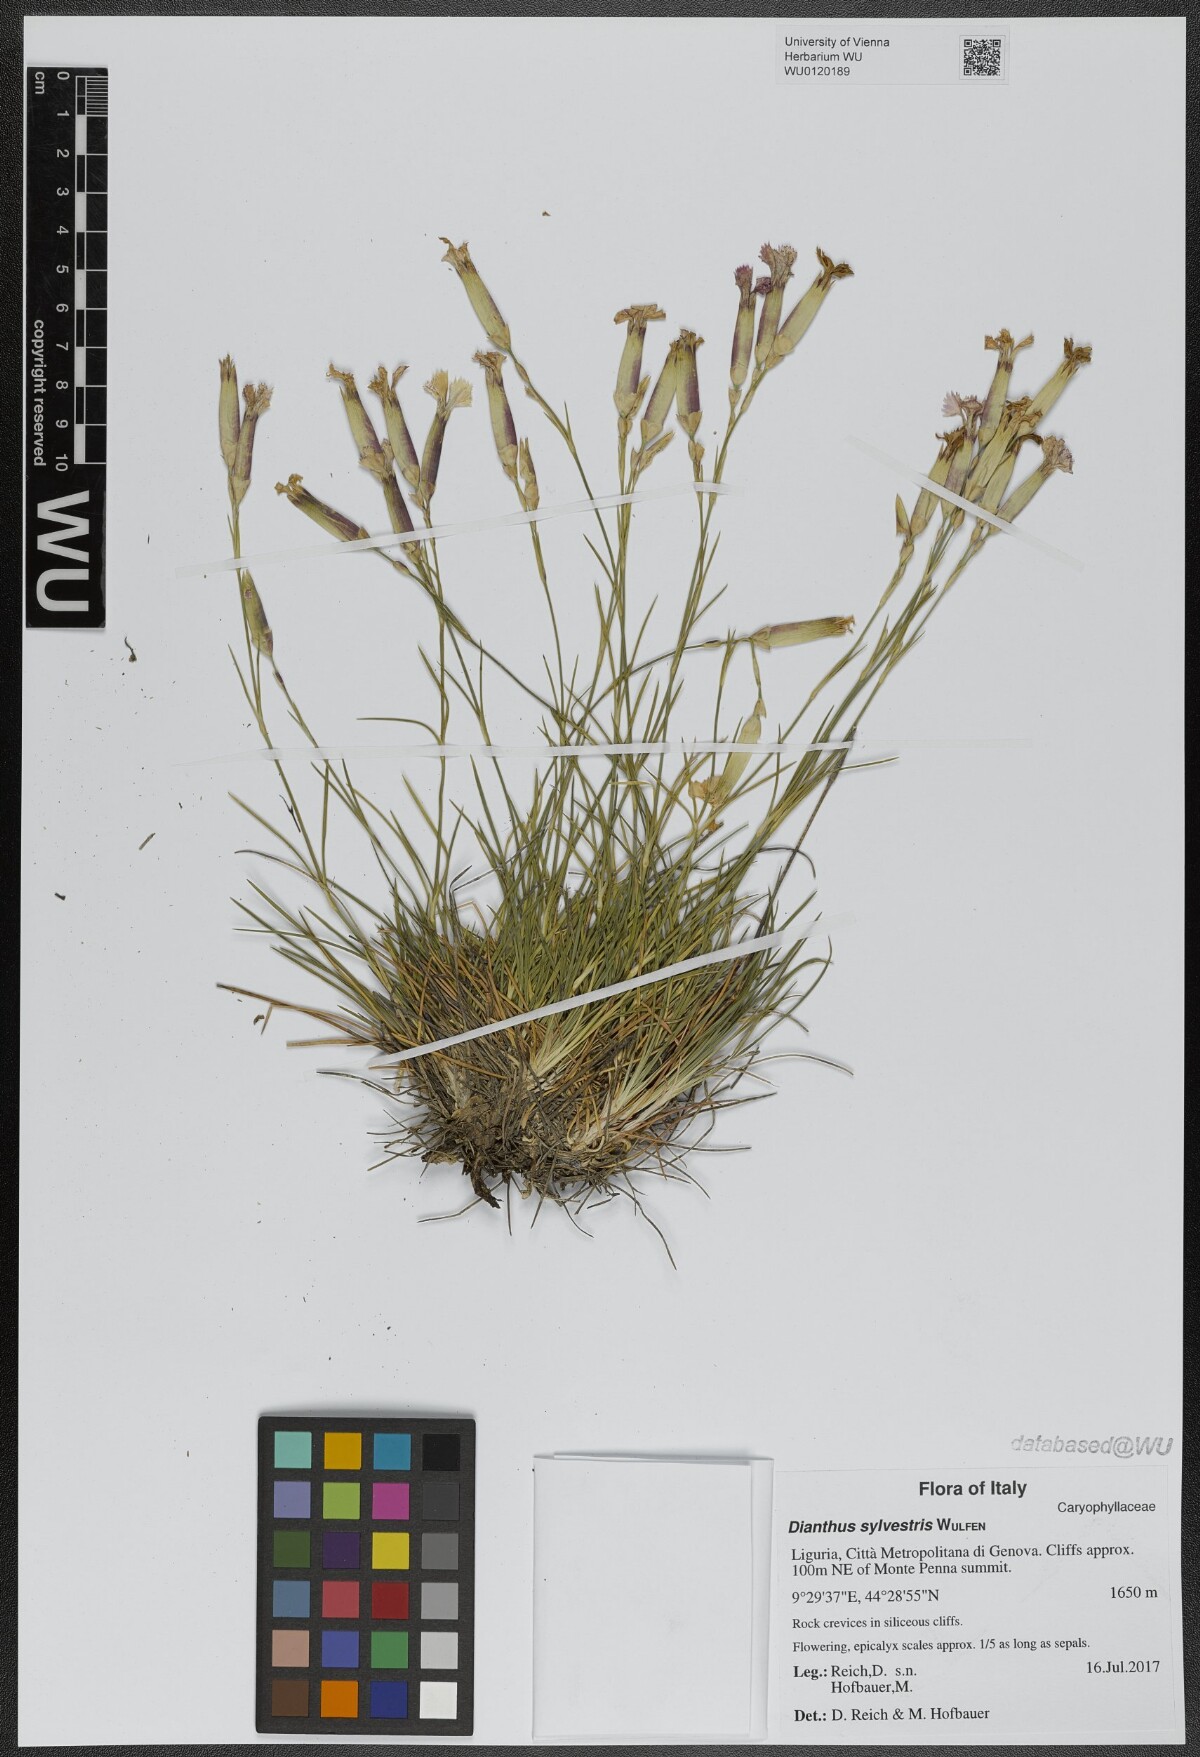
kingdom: Plantae
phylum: Tracheophyta
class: Magnoliopsida
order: Caryophyllales
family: Caryophyllaceae
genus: Dianthus
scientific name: Dianthus sylvestris
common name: Wood pink
